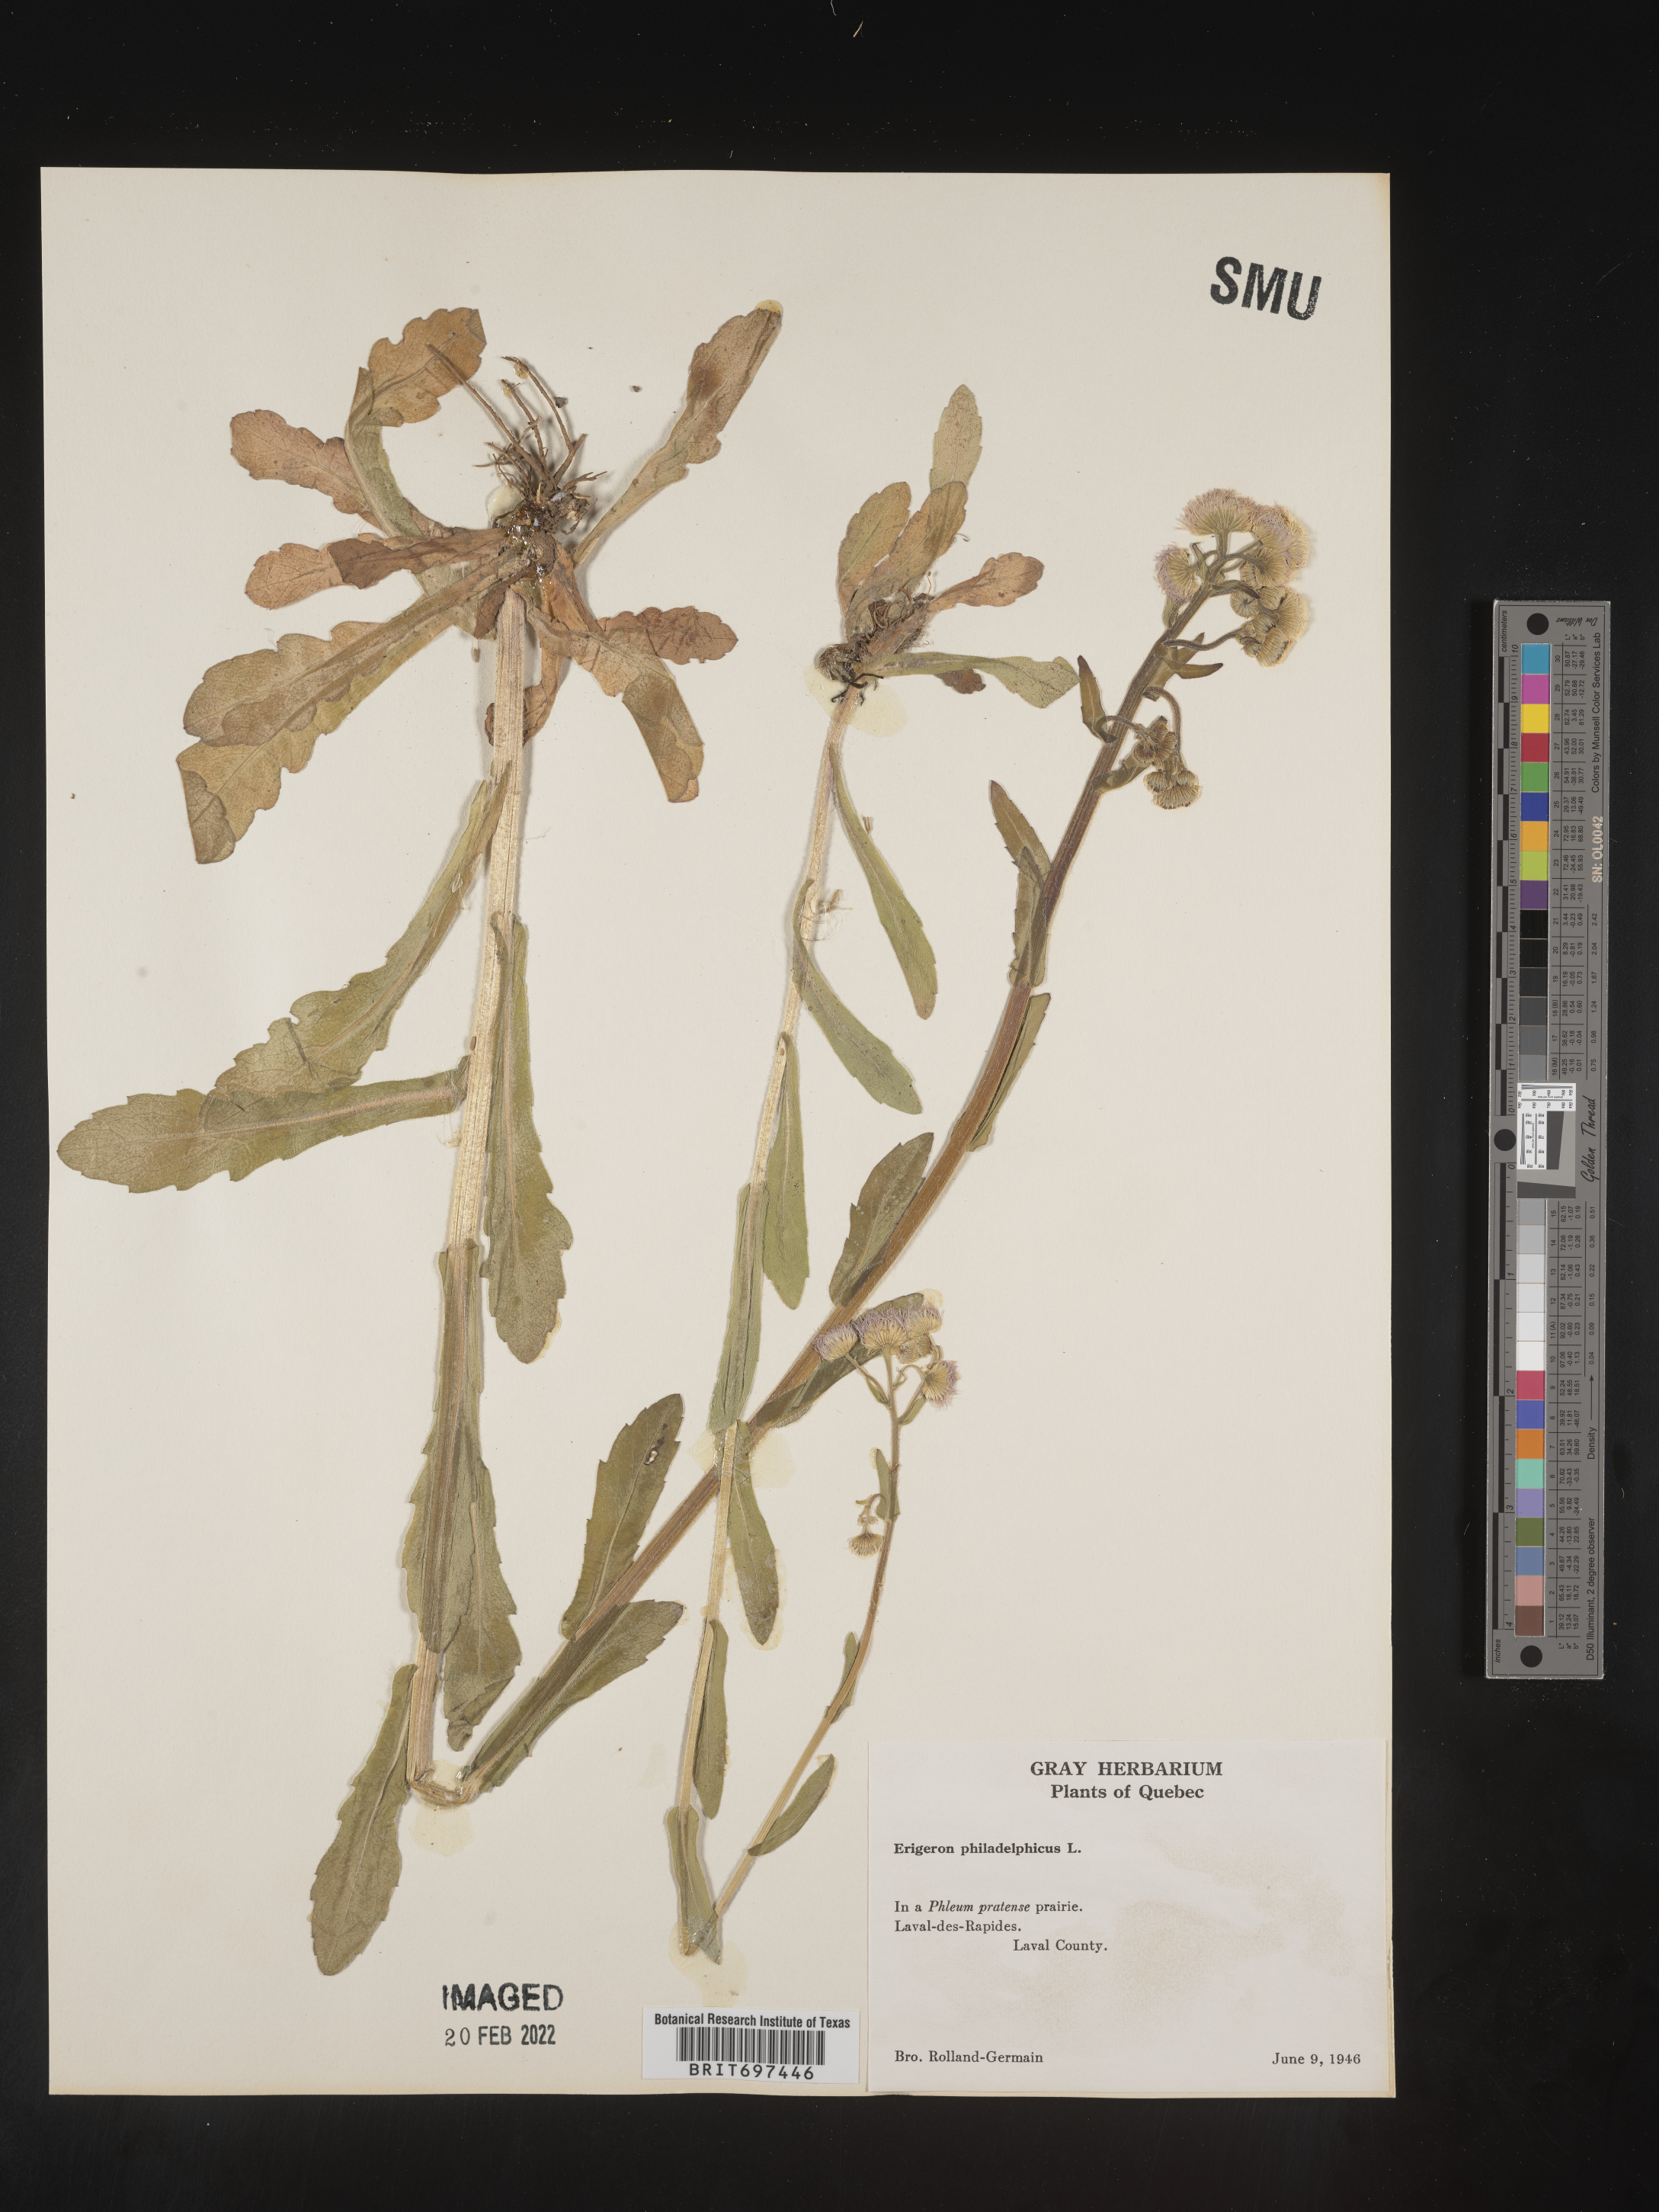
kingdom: Plantae
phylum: Tracheophyta
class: Magnoliopsida
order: Asterales
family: Asteraceae
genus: Erigeron
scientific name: Erigeron philadelphicus
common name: Robin's-plantain
